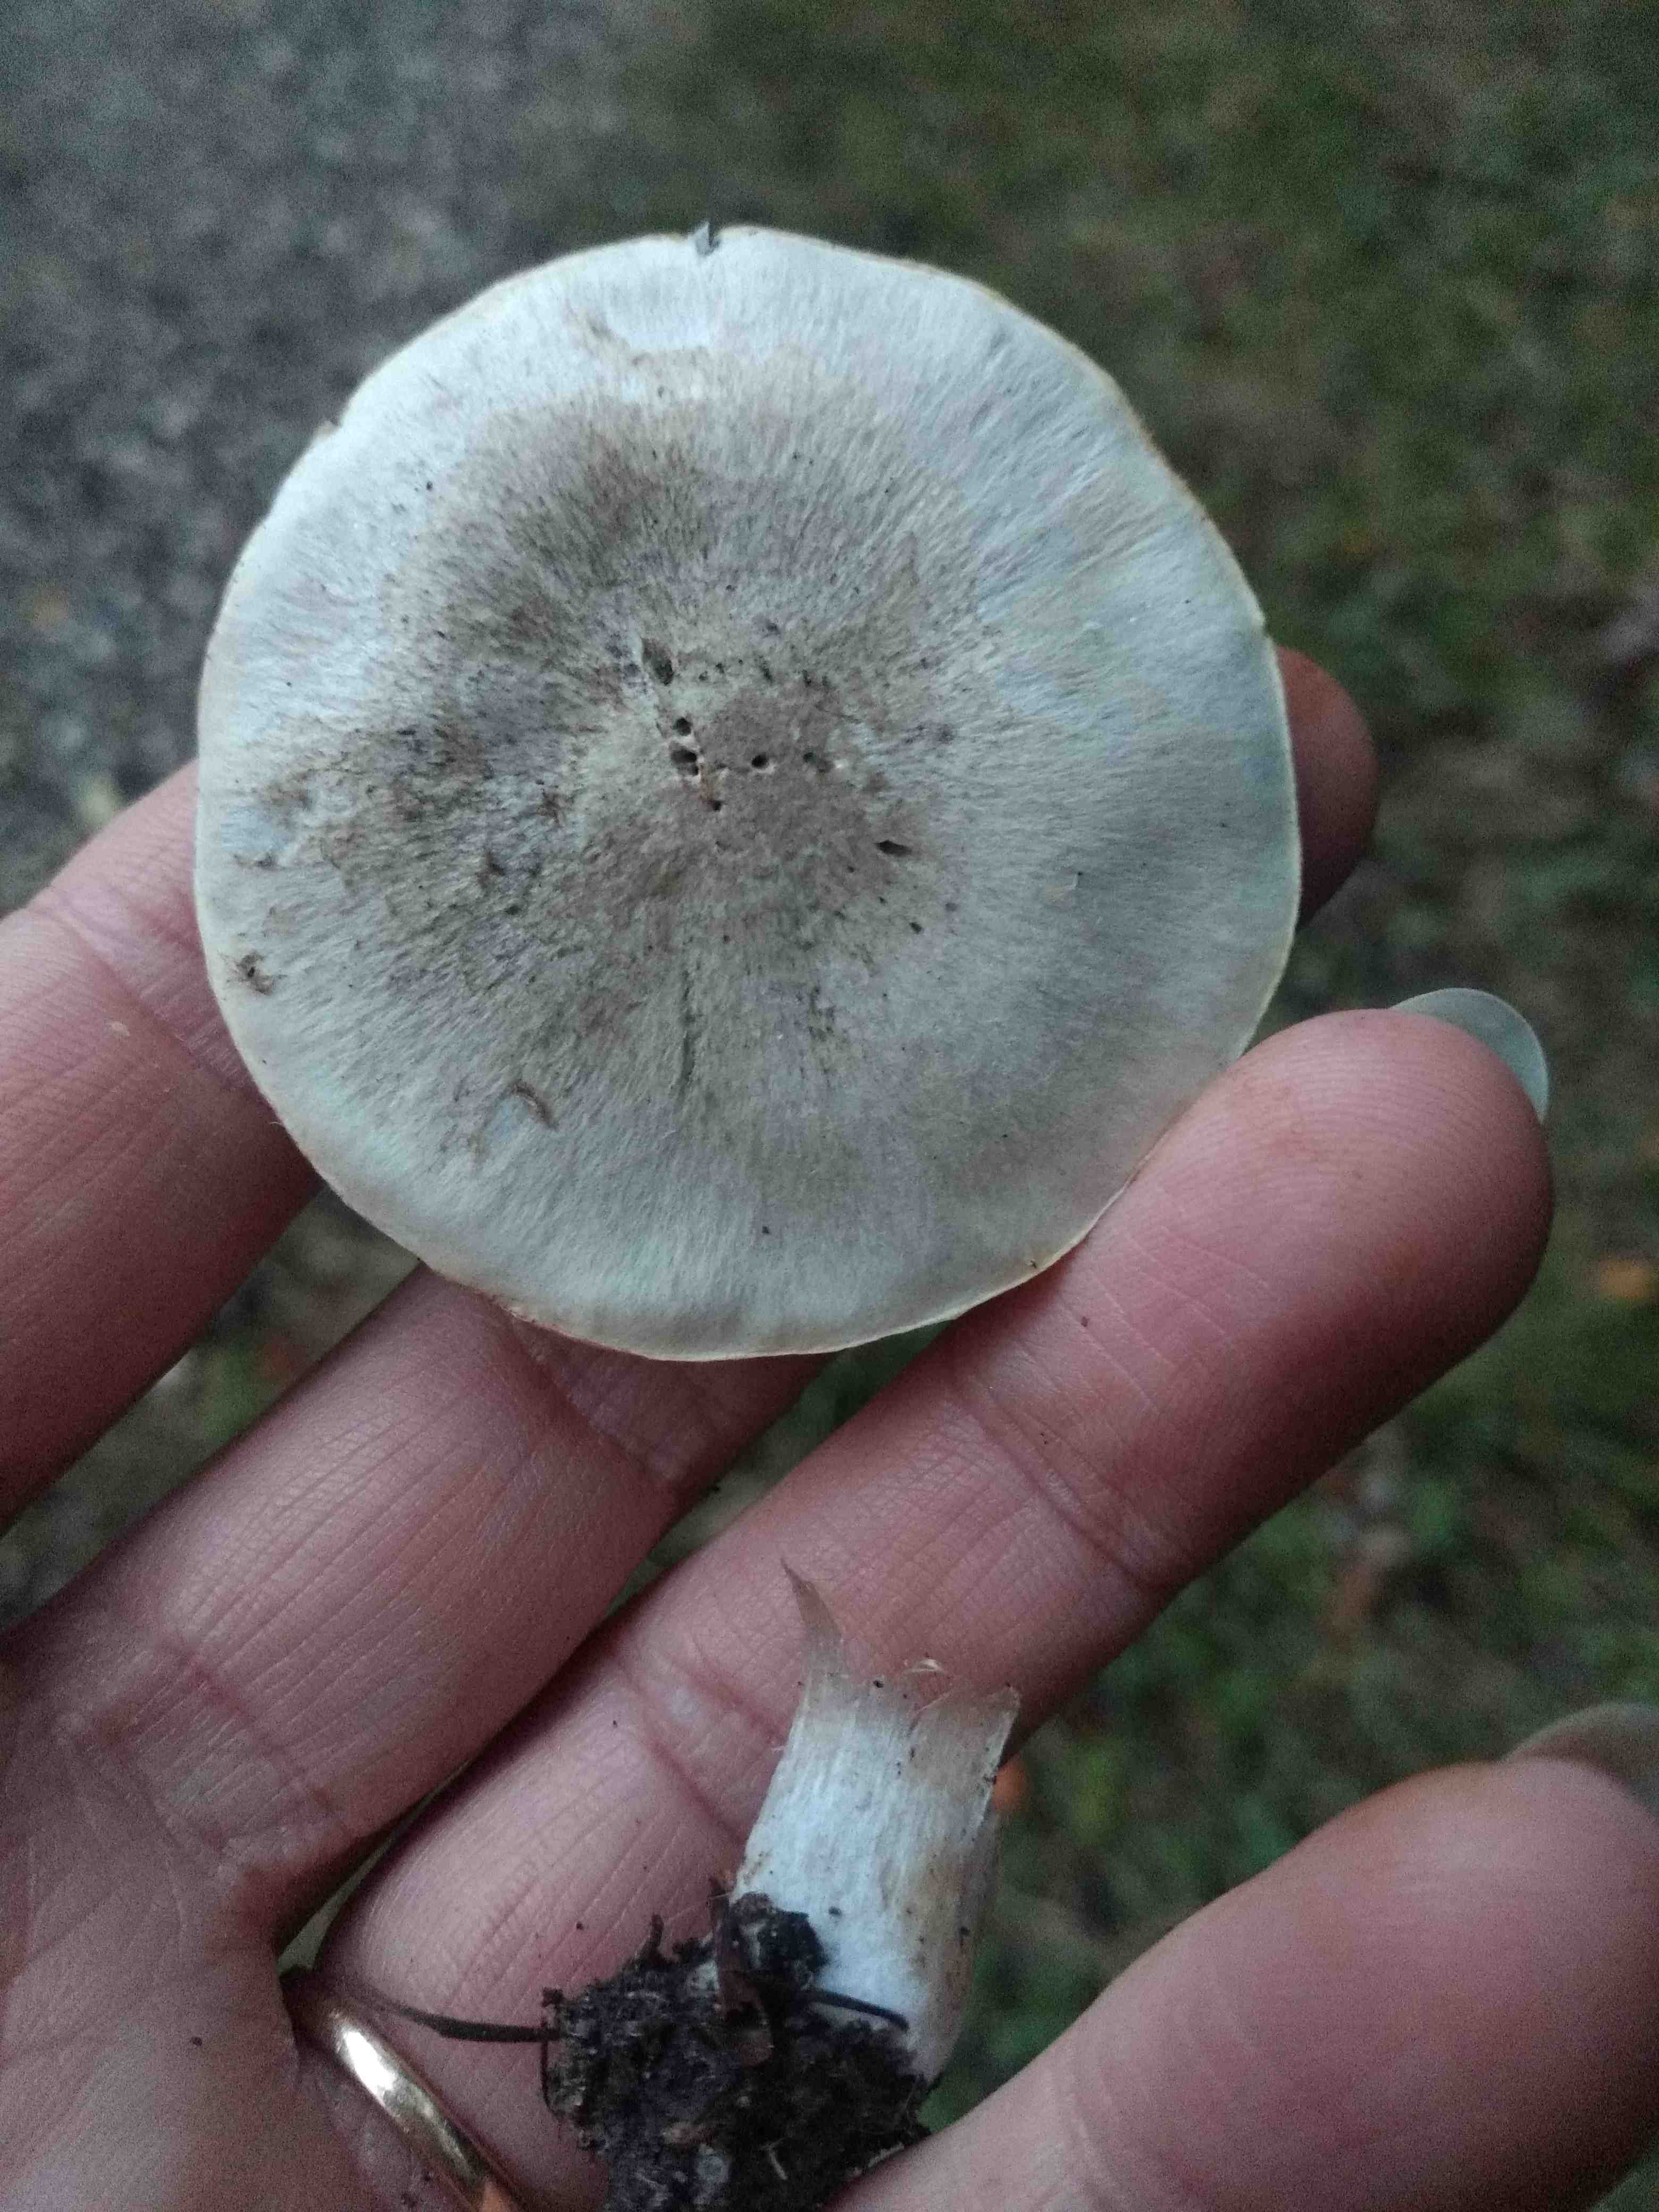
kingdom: Fungi
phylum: Basidiomycota
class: Agaricomycetes
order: Agaricales
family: Tricholomataceae
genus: Tricholoma
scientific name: Tricholoma cingulatum
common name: ring-ridderhat
